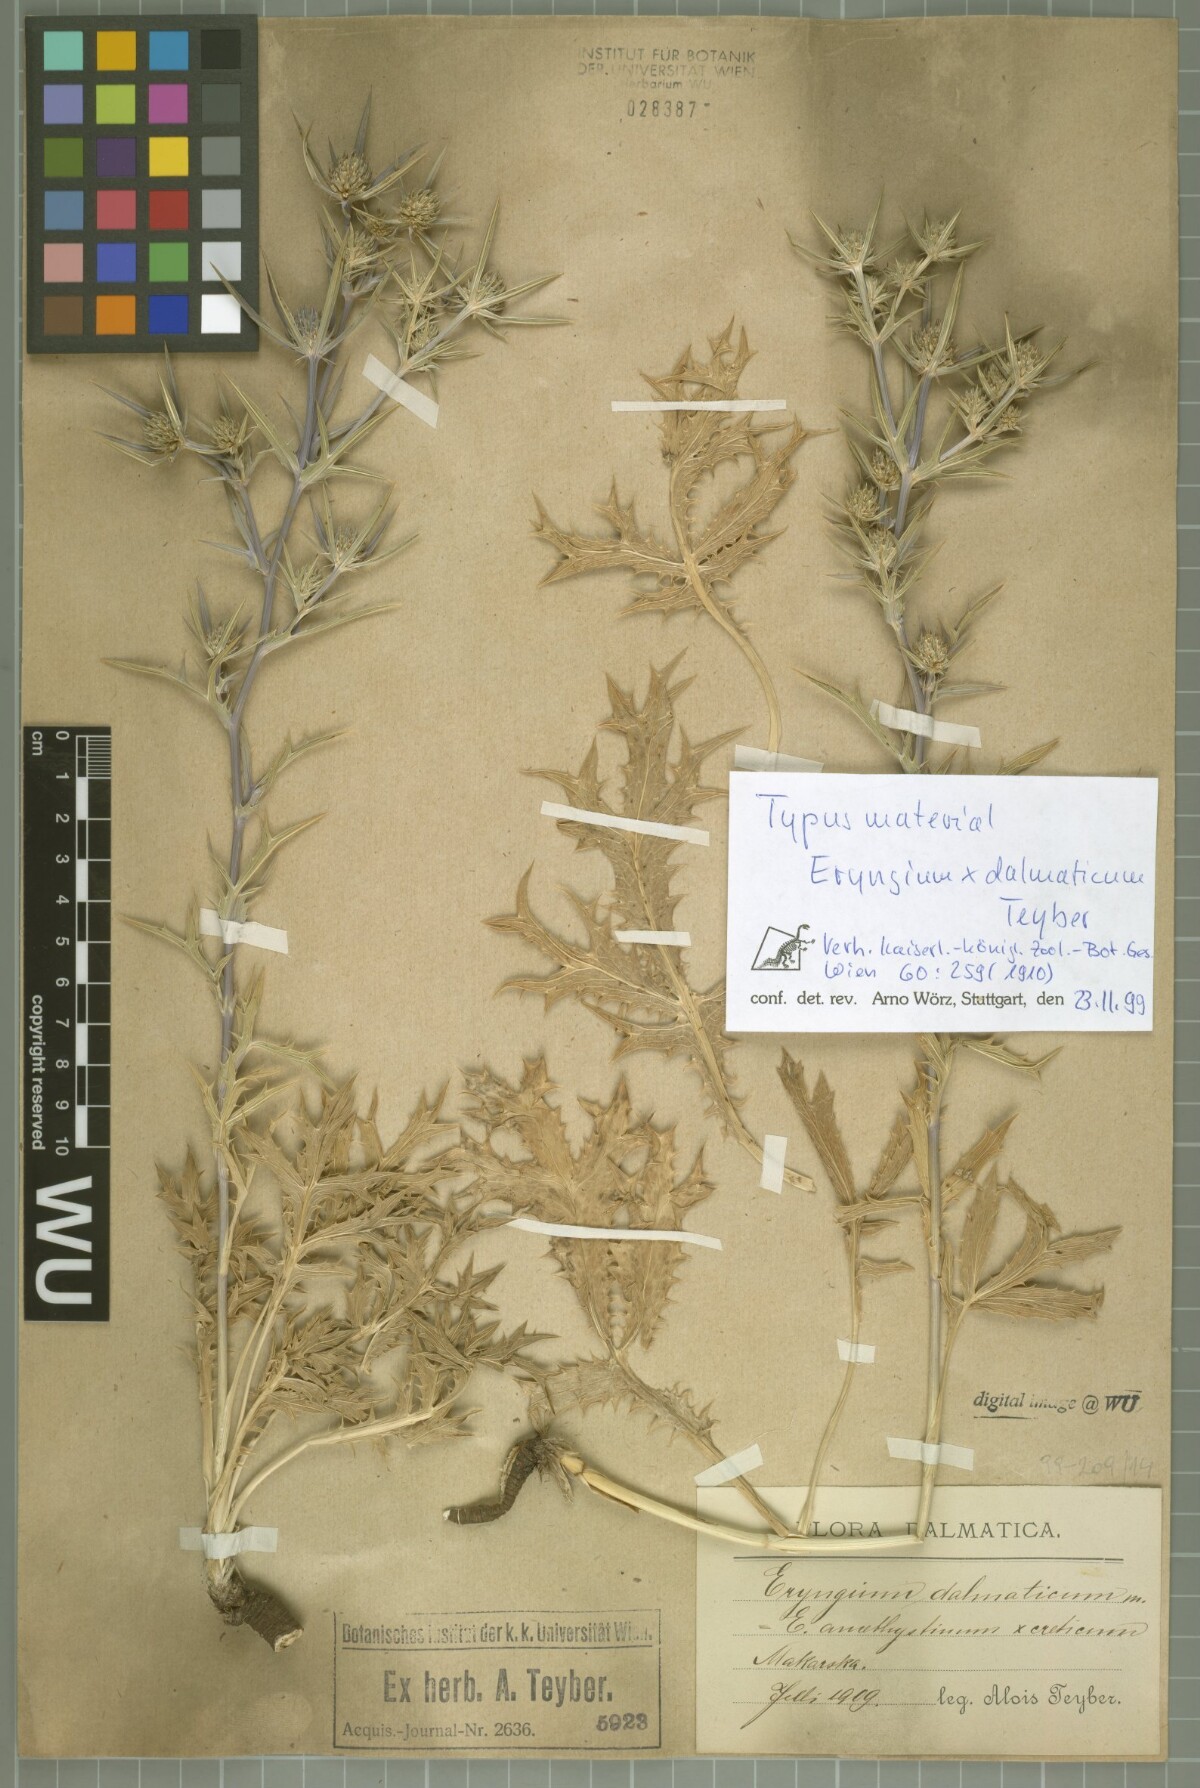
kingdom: Plantae
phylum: Tracheophyta
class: Magnoliopsida
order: Apiales
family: Apiaceae
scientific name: Apiaceae
